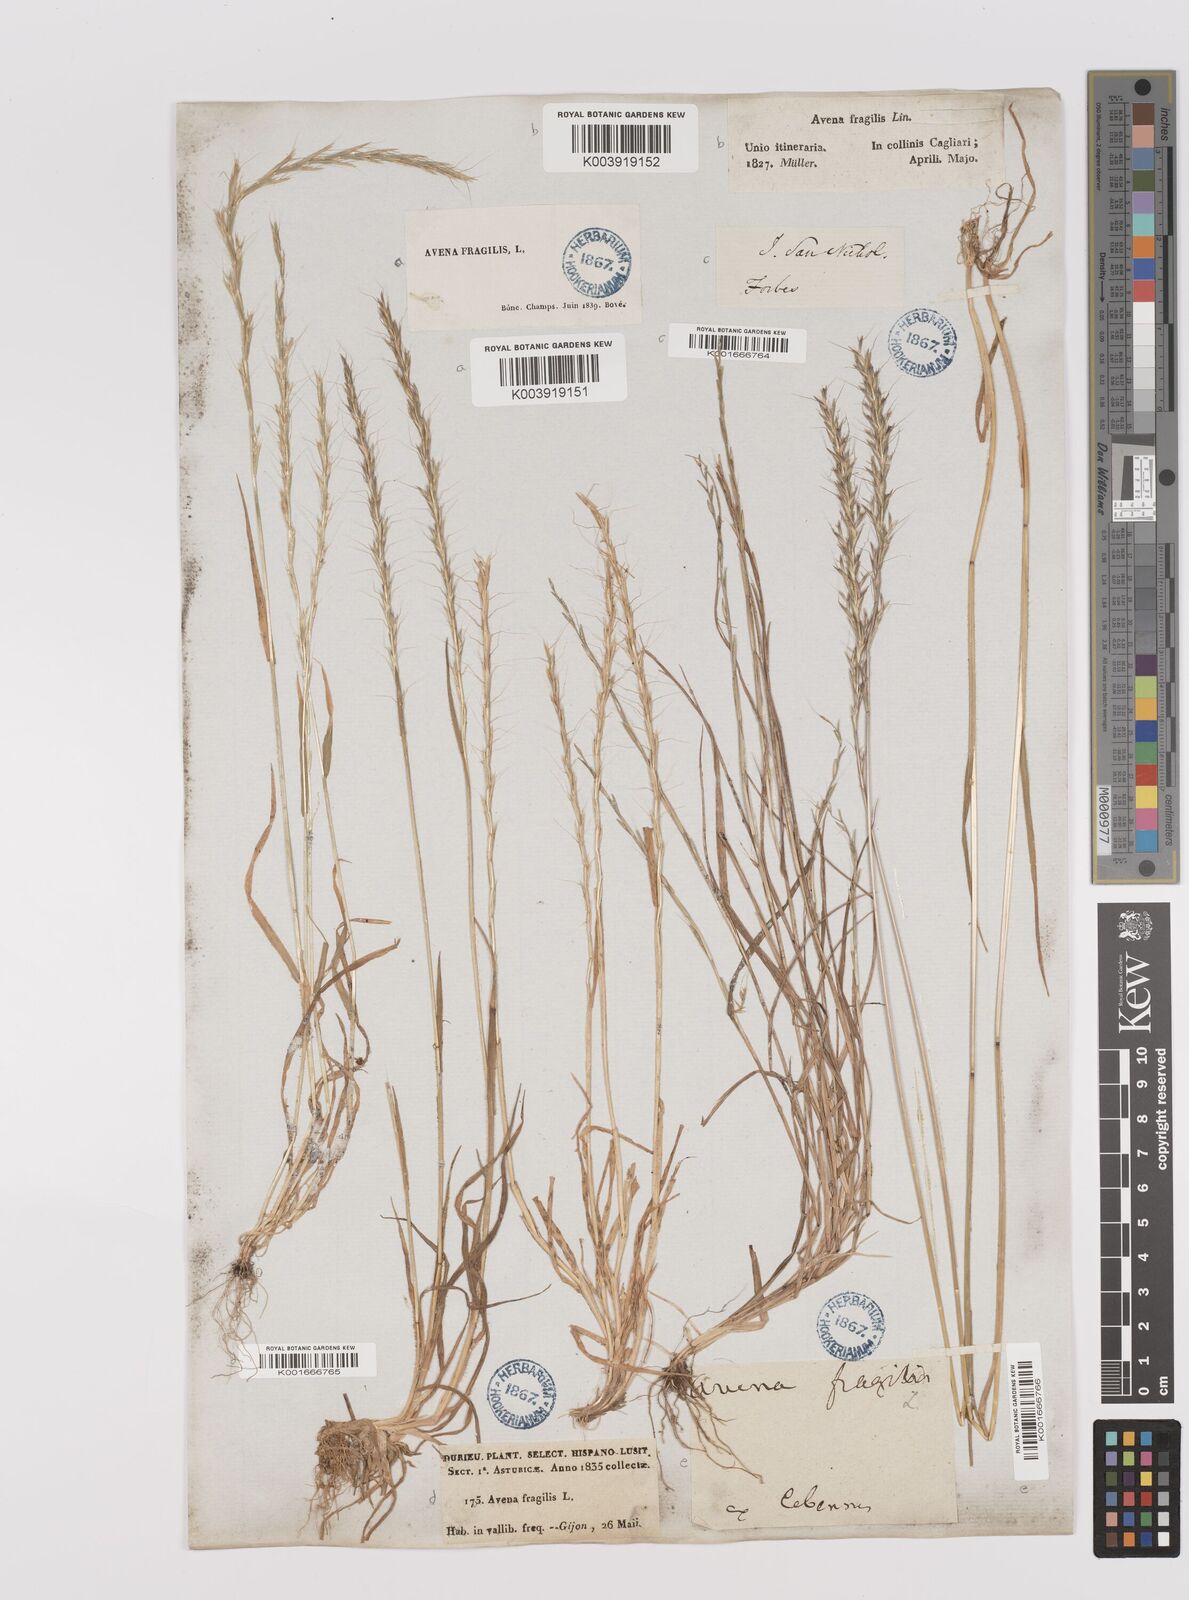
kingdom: Plantae
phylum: Tracheophyta
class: Liliopsida
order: Poales
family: Poaceae
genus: Gaudinia
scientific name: Gaudinia fragilis
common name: French oat-grass
